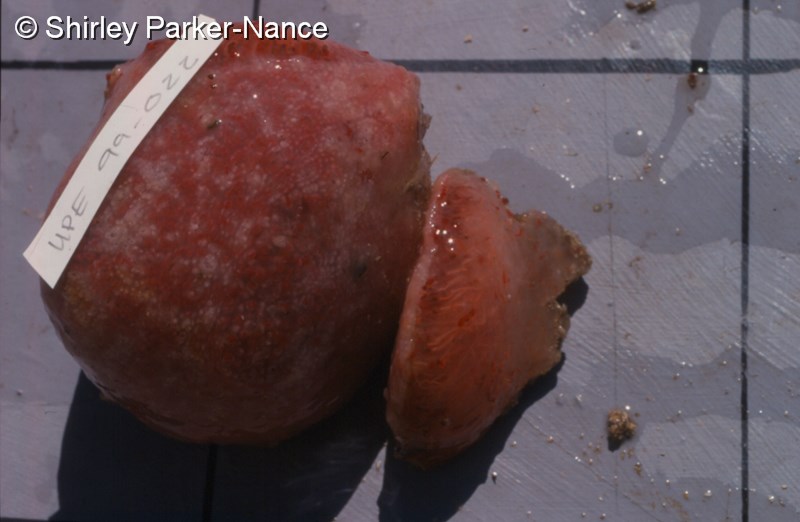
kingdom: Animalia
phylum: Chordata
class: Ascidiacea
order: Aplousobranchia
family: Polyclinidae
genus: Aplidium
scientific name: Aplidium flavolineatum
